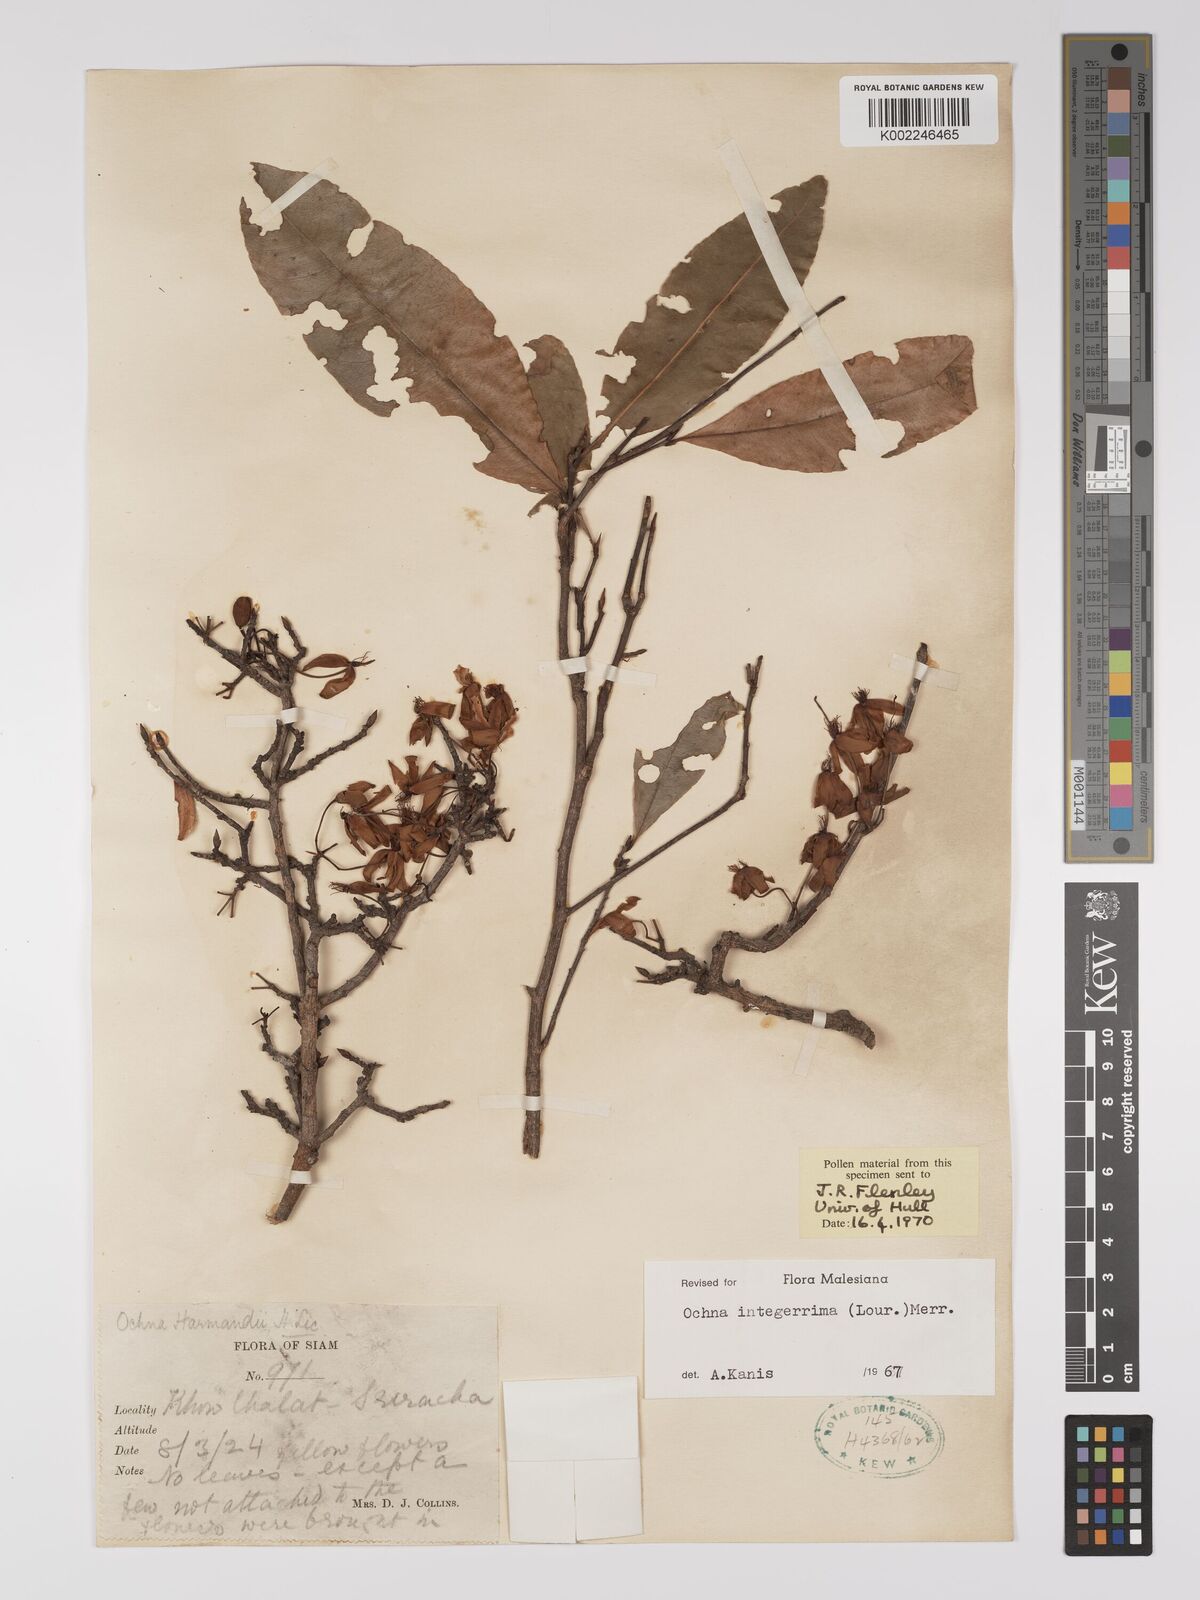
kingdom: Plantae
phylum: Tracheophyta
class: Magnoliopsida
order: Malpighiales
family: Ochnaceae
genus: Ochna
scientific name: Ochna integerrima
